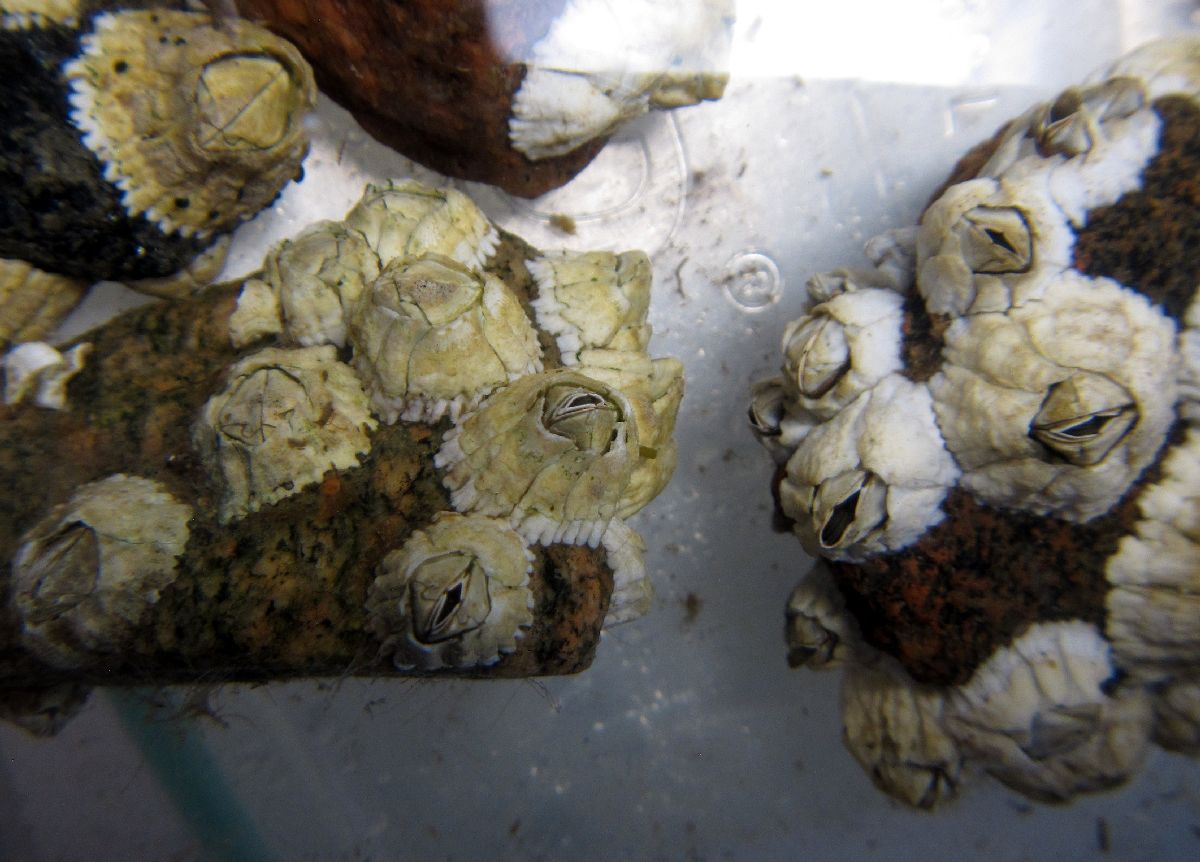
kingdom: Animalia
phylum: Arthropoda
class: Maxillopoda
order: Sessilia
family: Archaeobalanidae
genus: Semibalanus
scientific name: Semibalanus balanoides
